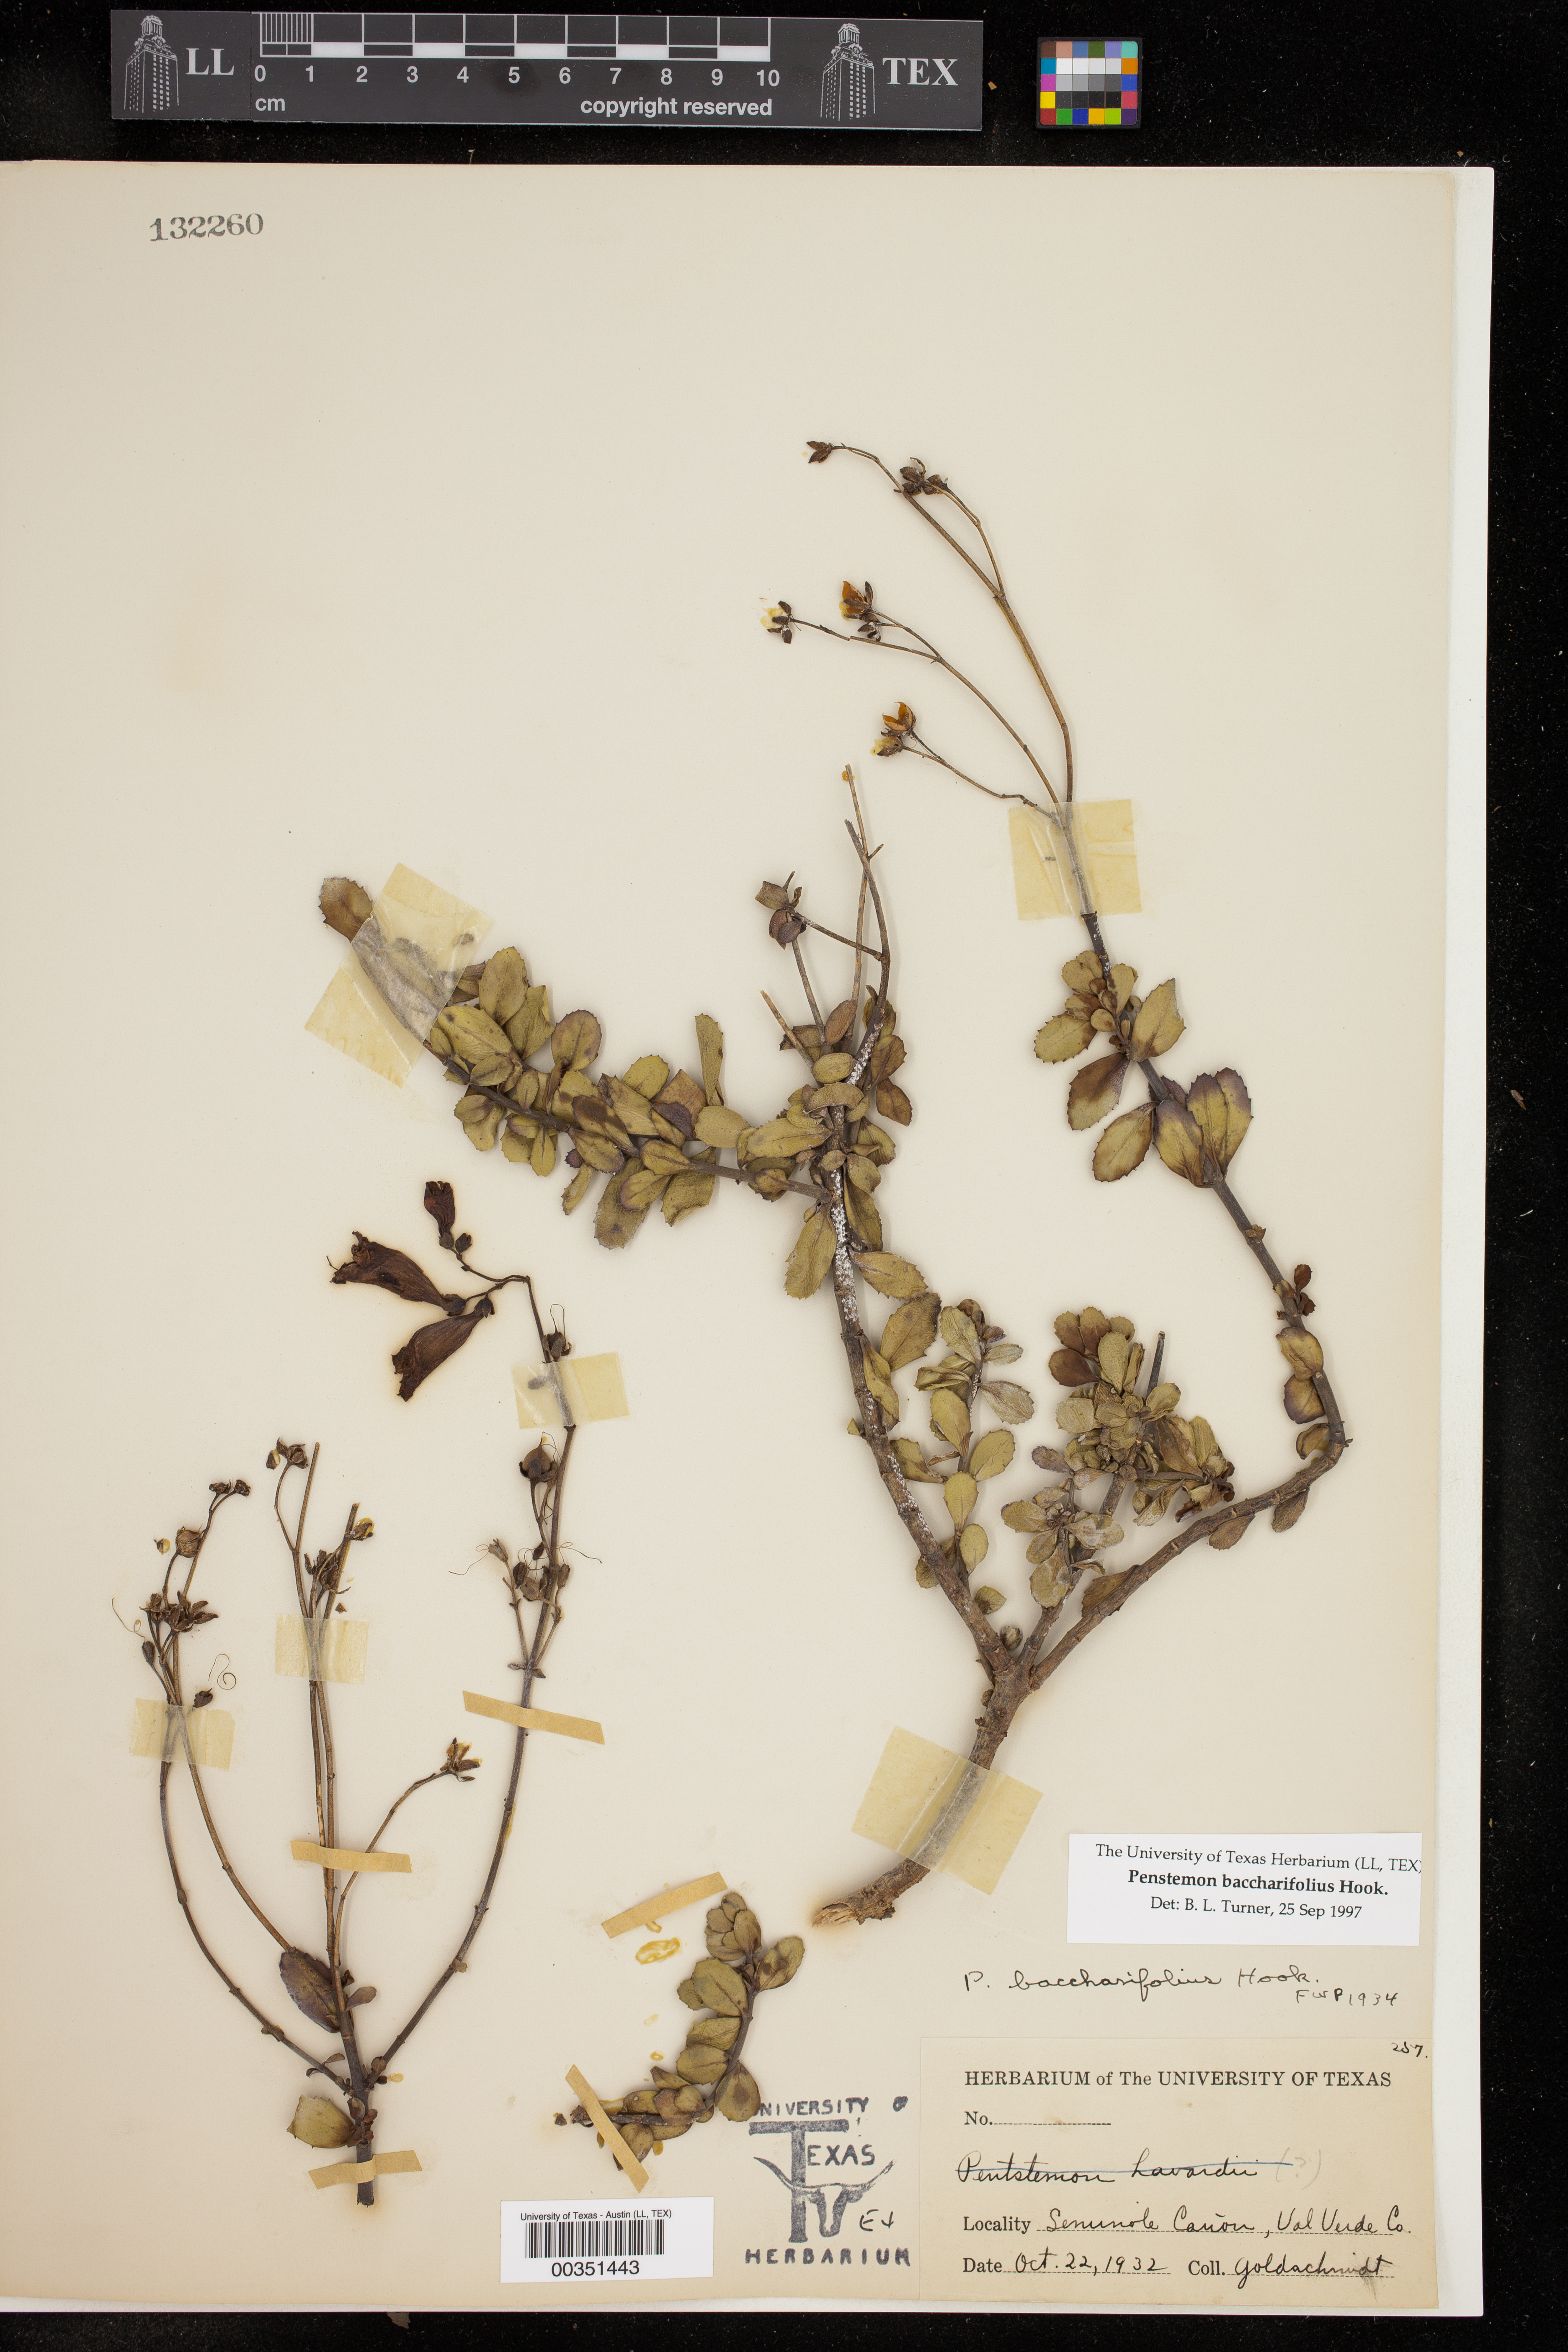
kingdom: Plantae
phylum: Tracheophyta
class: Magnoliopsida
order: Lamiales
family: Plantaginaceae
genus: Penstemon
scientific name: Penstemon baccharifolius
